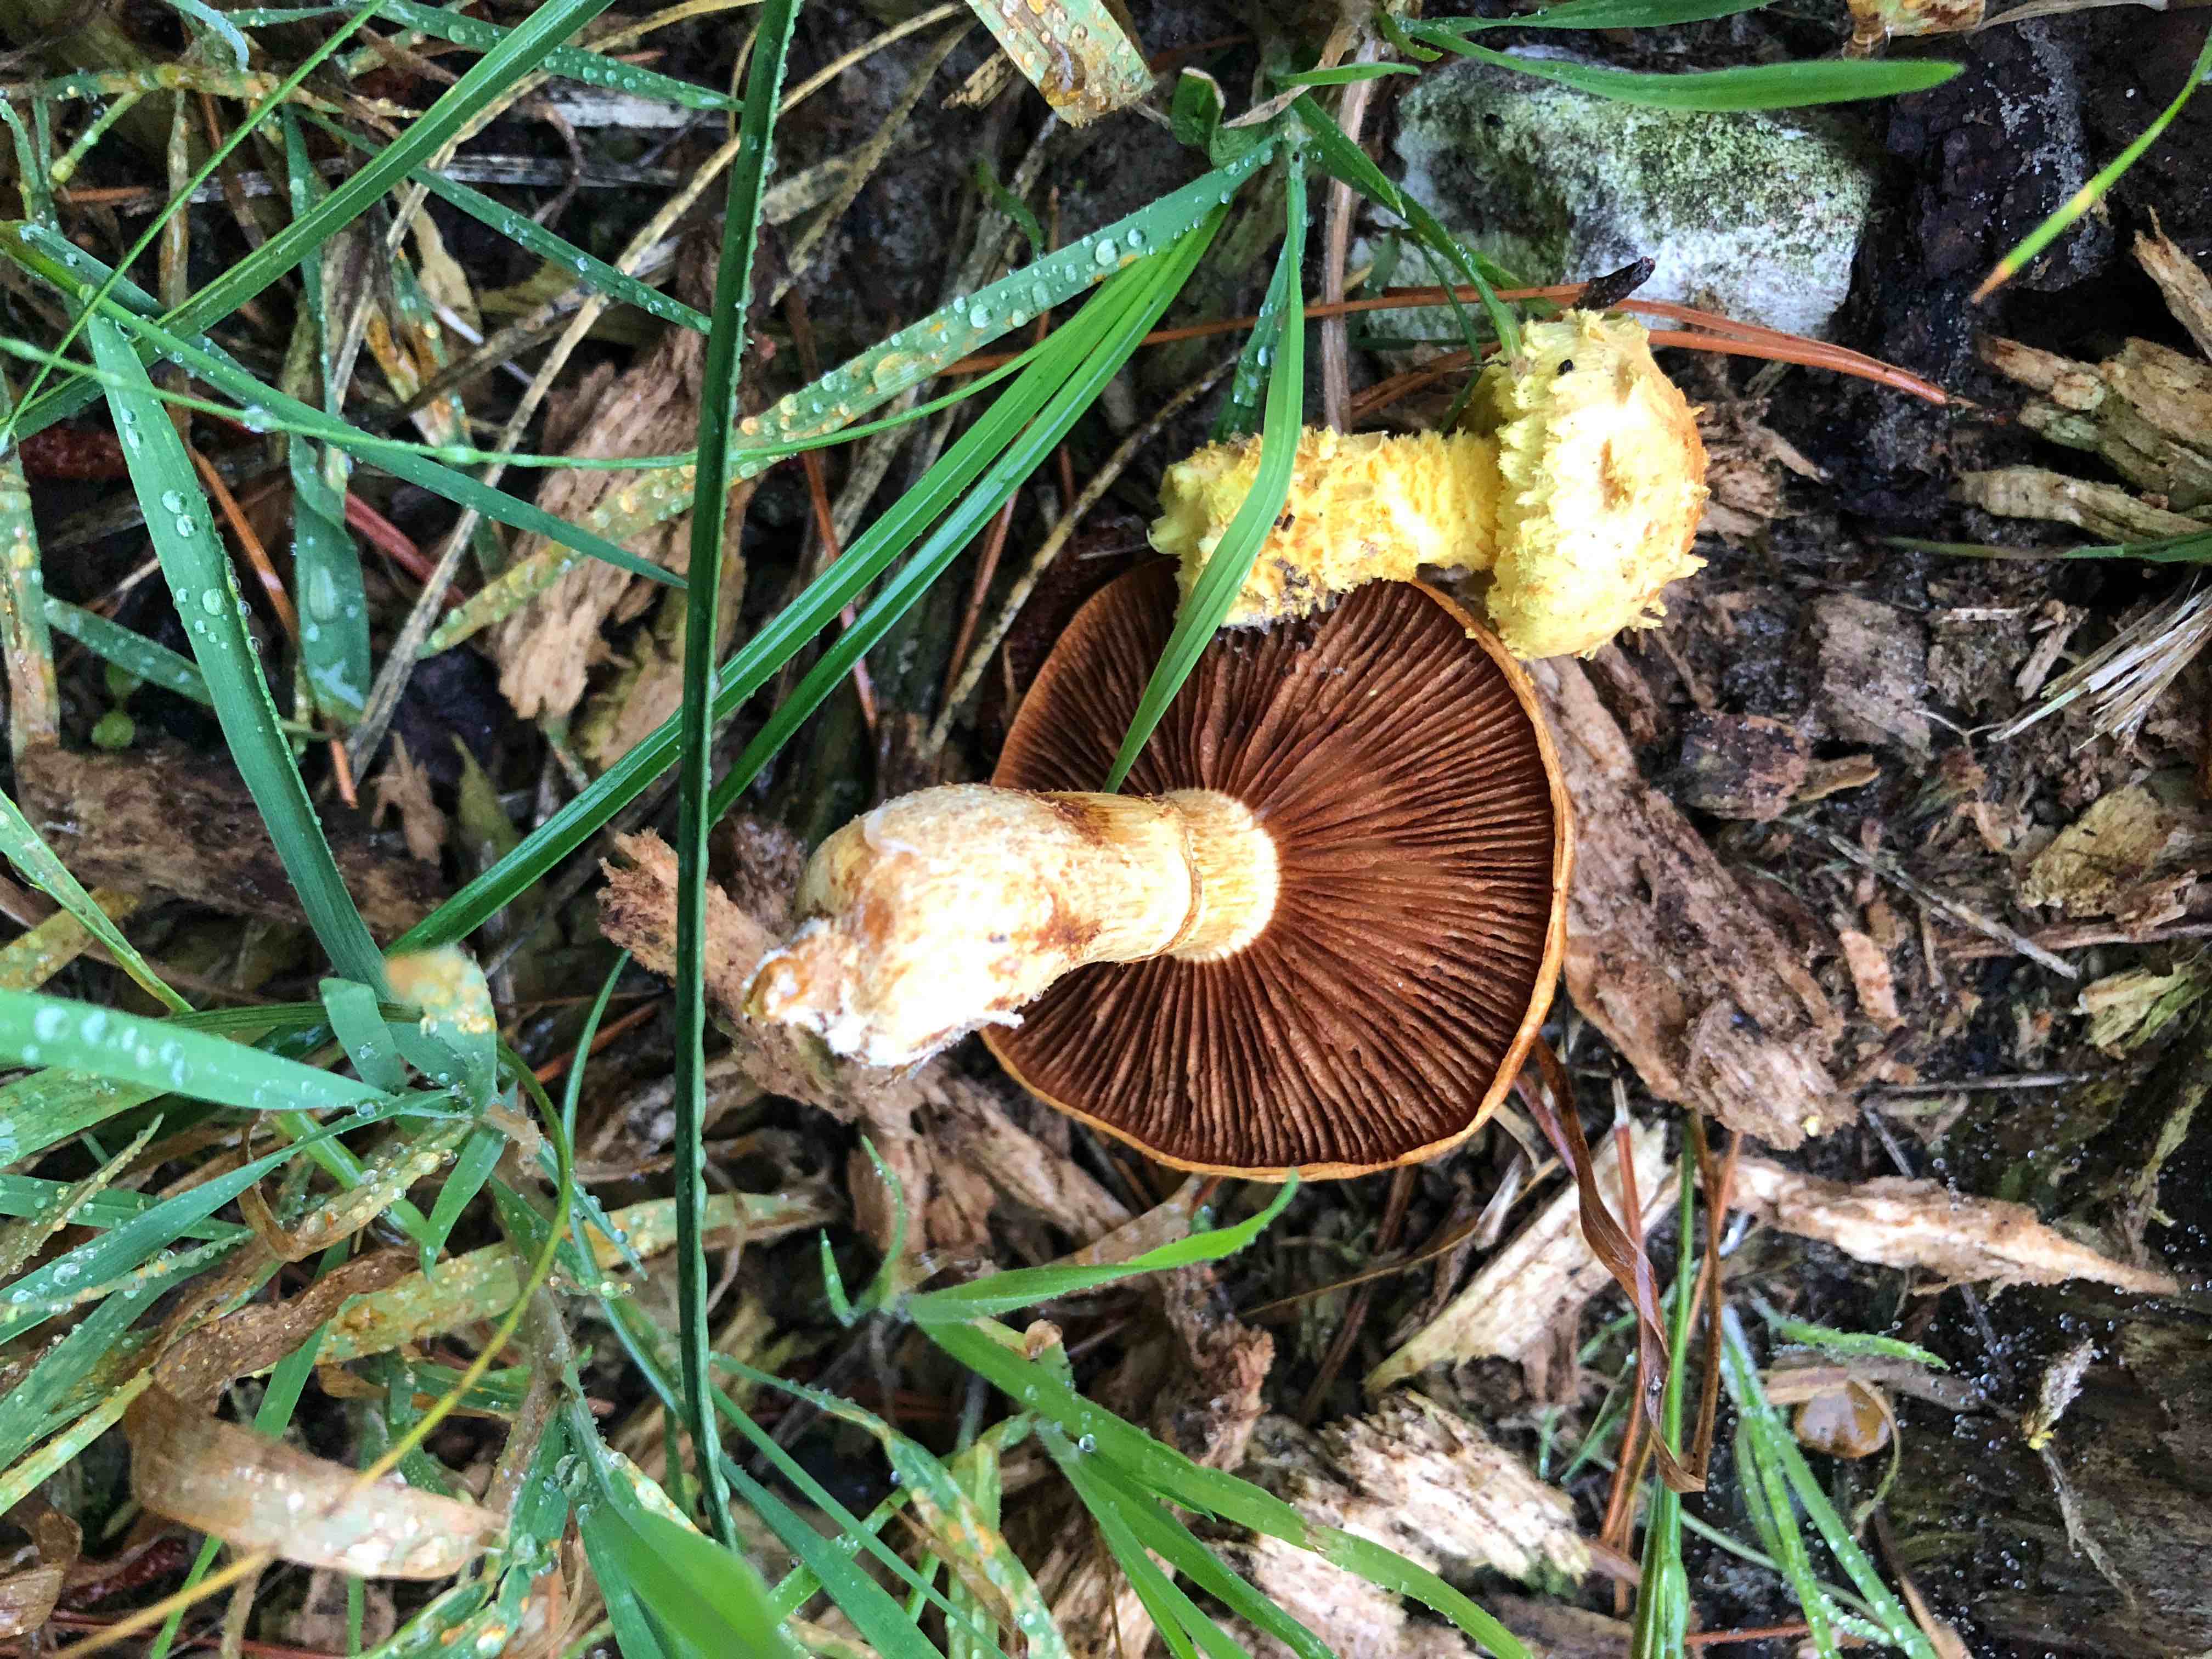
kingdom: Fungi
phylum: Basidiomycota
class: Agaricomycetes
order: Agaricales
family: Strophariaceae
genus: Pholiota
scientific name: Pholiota flammans
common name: flamme-skælhat
